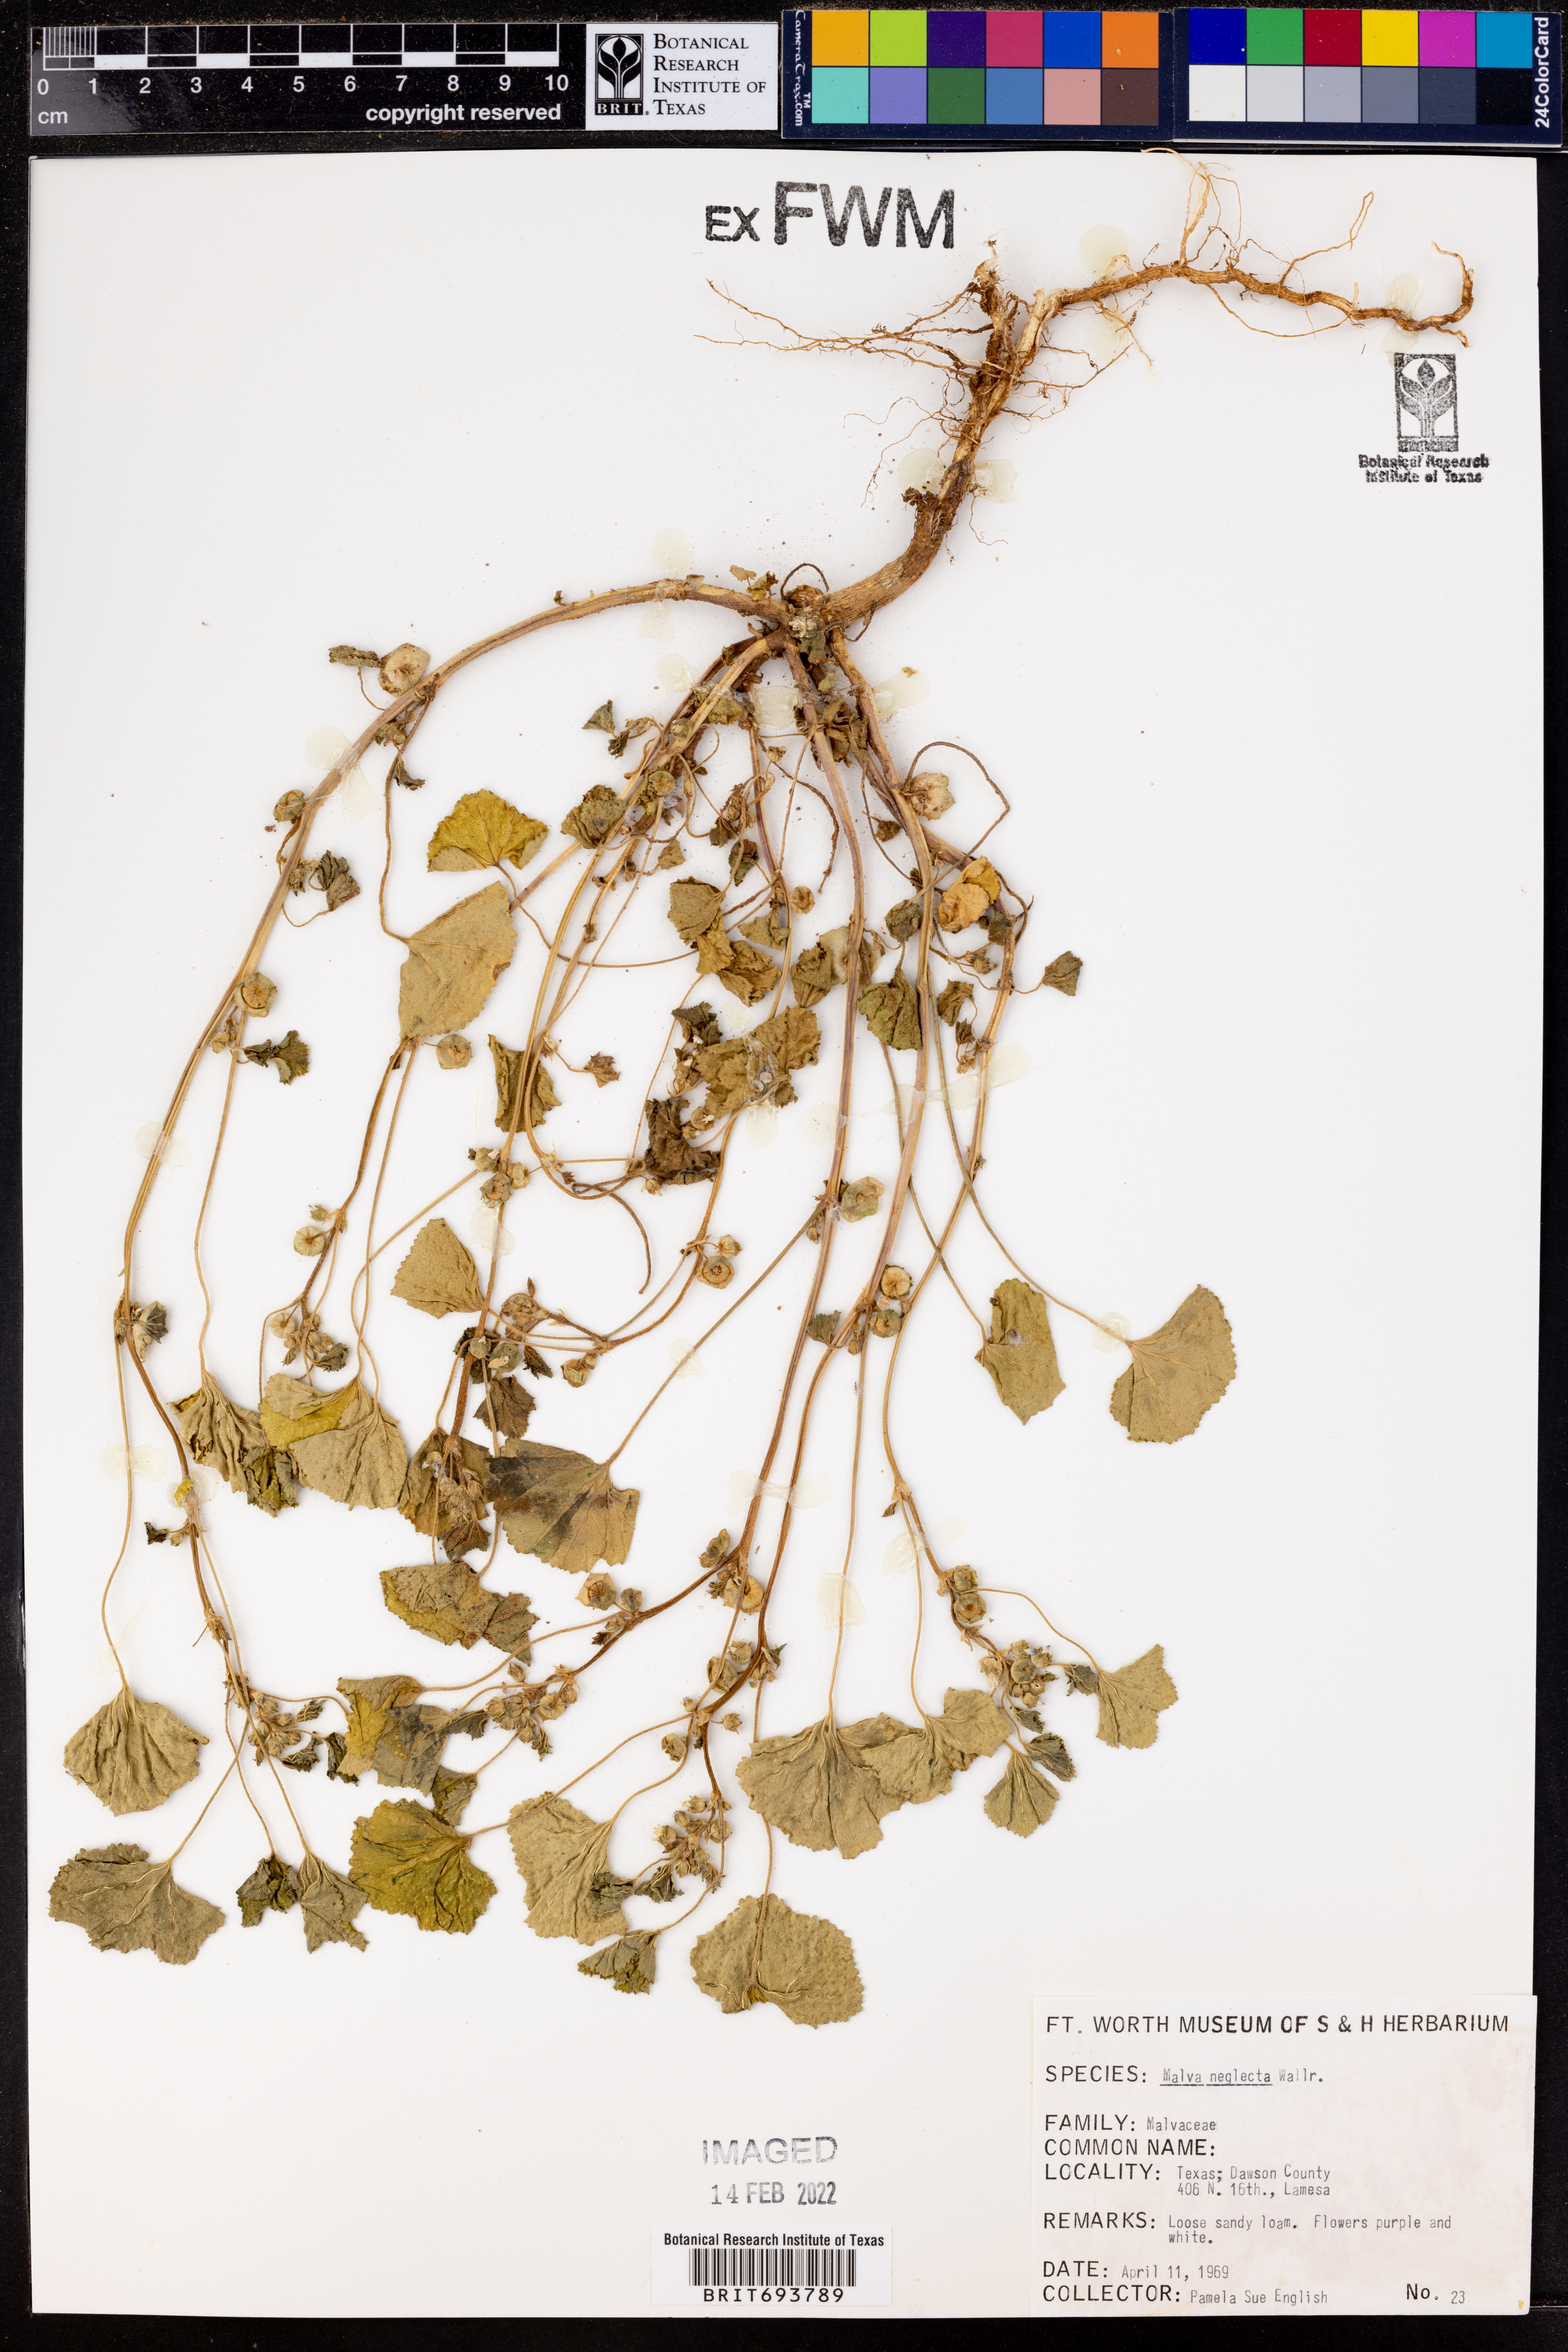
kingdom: Plantae
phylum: Tracheophyta
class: Magnoliopsida
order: Malvales
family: Malvaceae
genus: Malva
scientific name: Malva neglecta
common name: Common mallow
